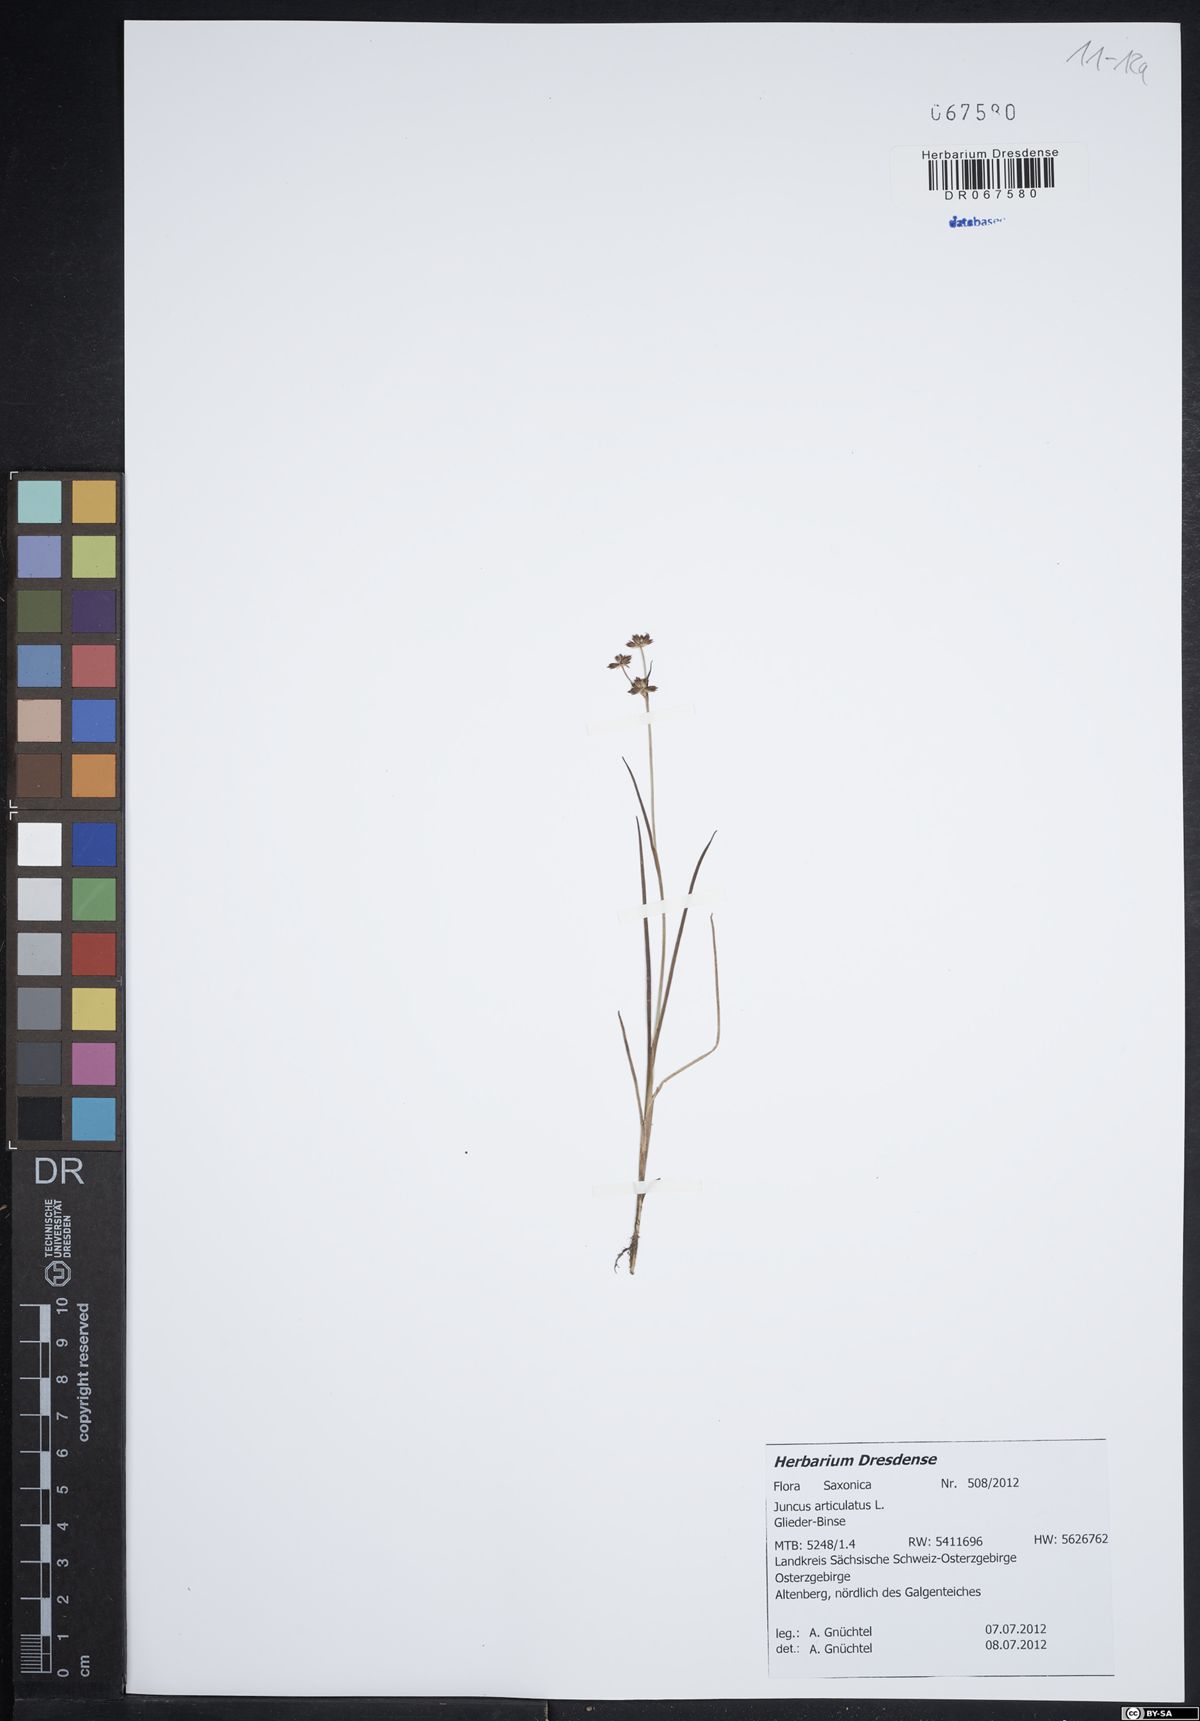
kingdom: Plantae
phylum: Tracheophyta
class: Liliopsida
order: Poales
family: Juncaceae
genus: Juncus
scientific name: Juncus articulatus
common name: Jointed rush
